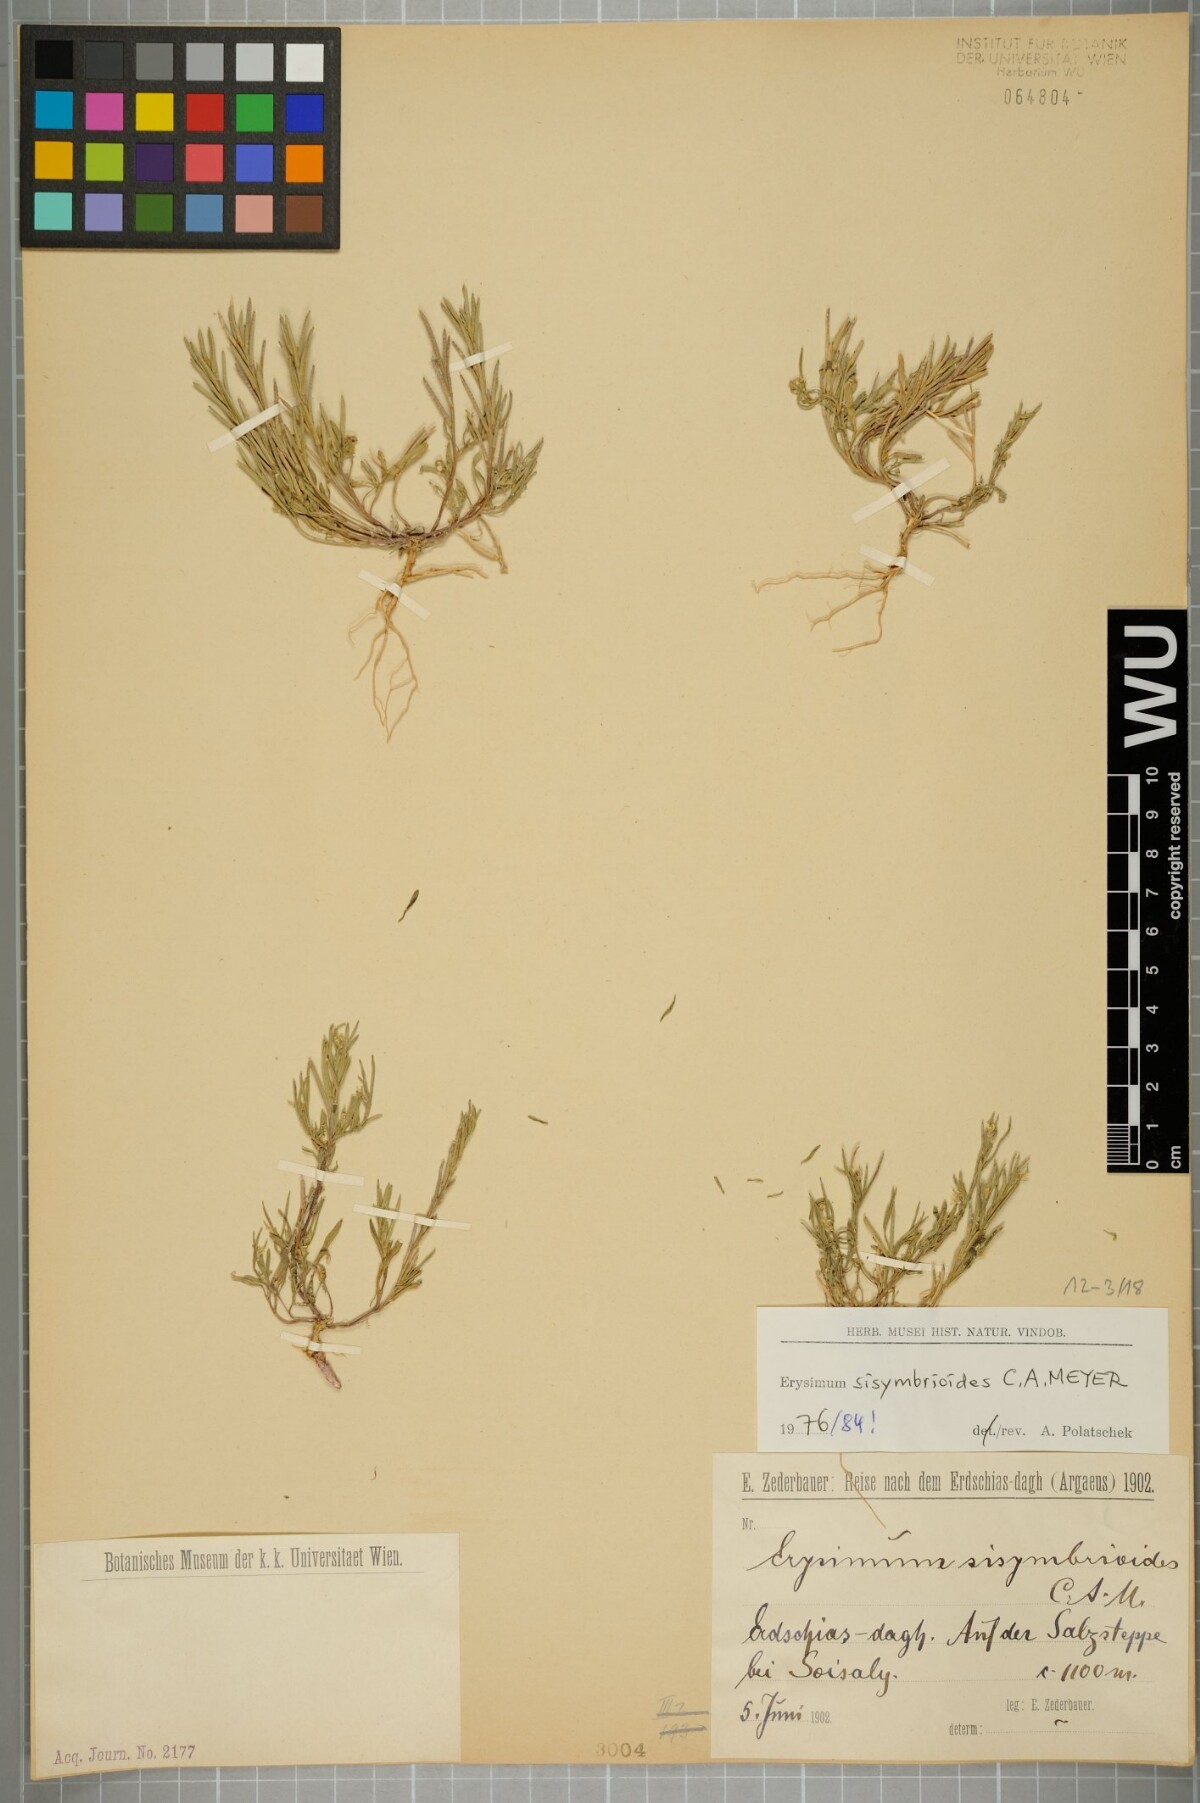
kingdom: Plantae
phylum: Tracheophyta
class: Magnoliopsida
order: Brassicales
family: Brassicaceae
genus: Erysimum
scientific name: Erysimum sisymbrioides
